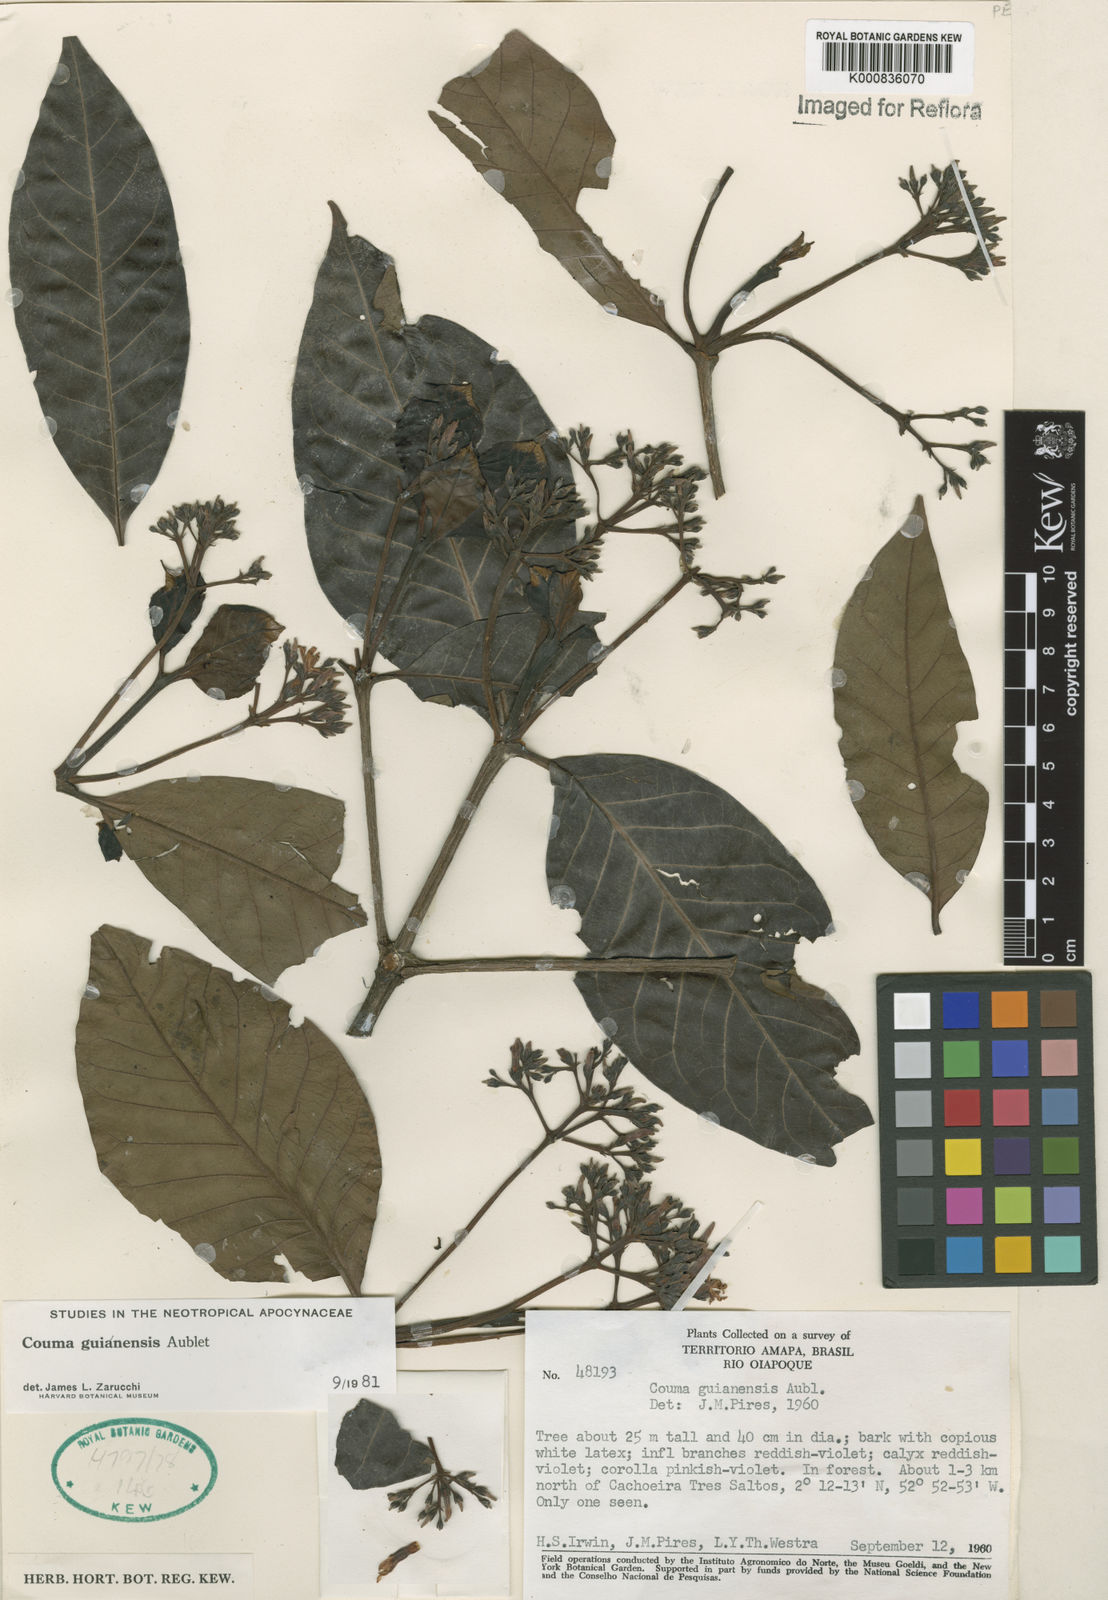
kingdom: Plantae
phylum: Tracheophyta
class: Magnoliopsida
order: Gentianales
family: Apocynaceae
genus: Couma
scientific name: Couma guianensis
